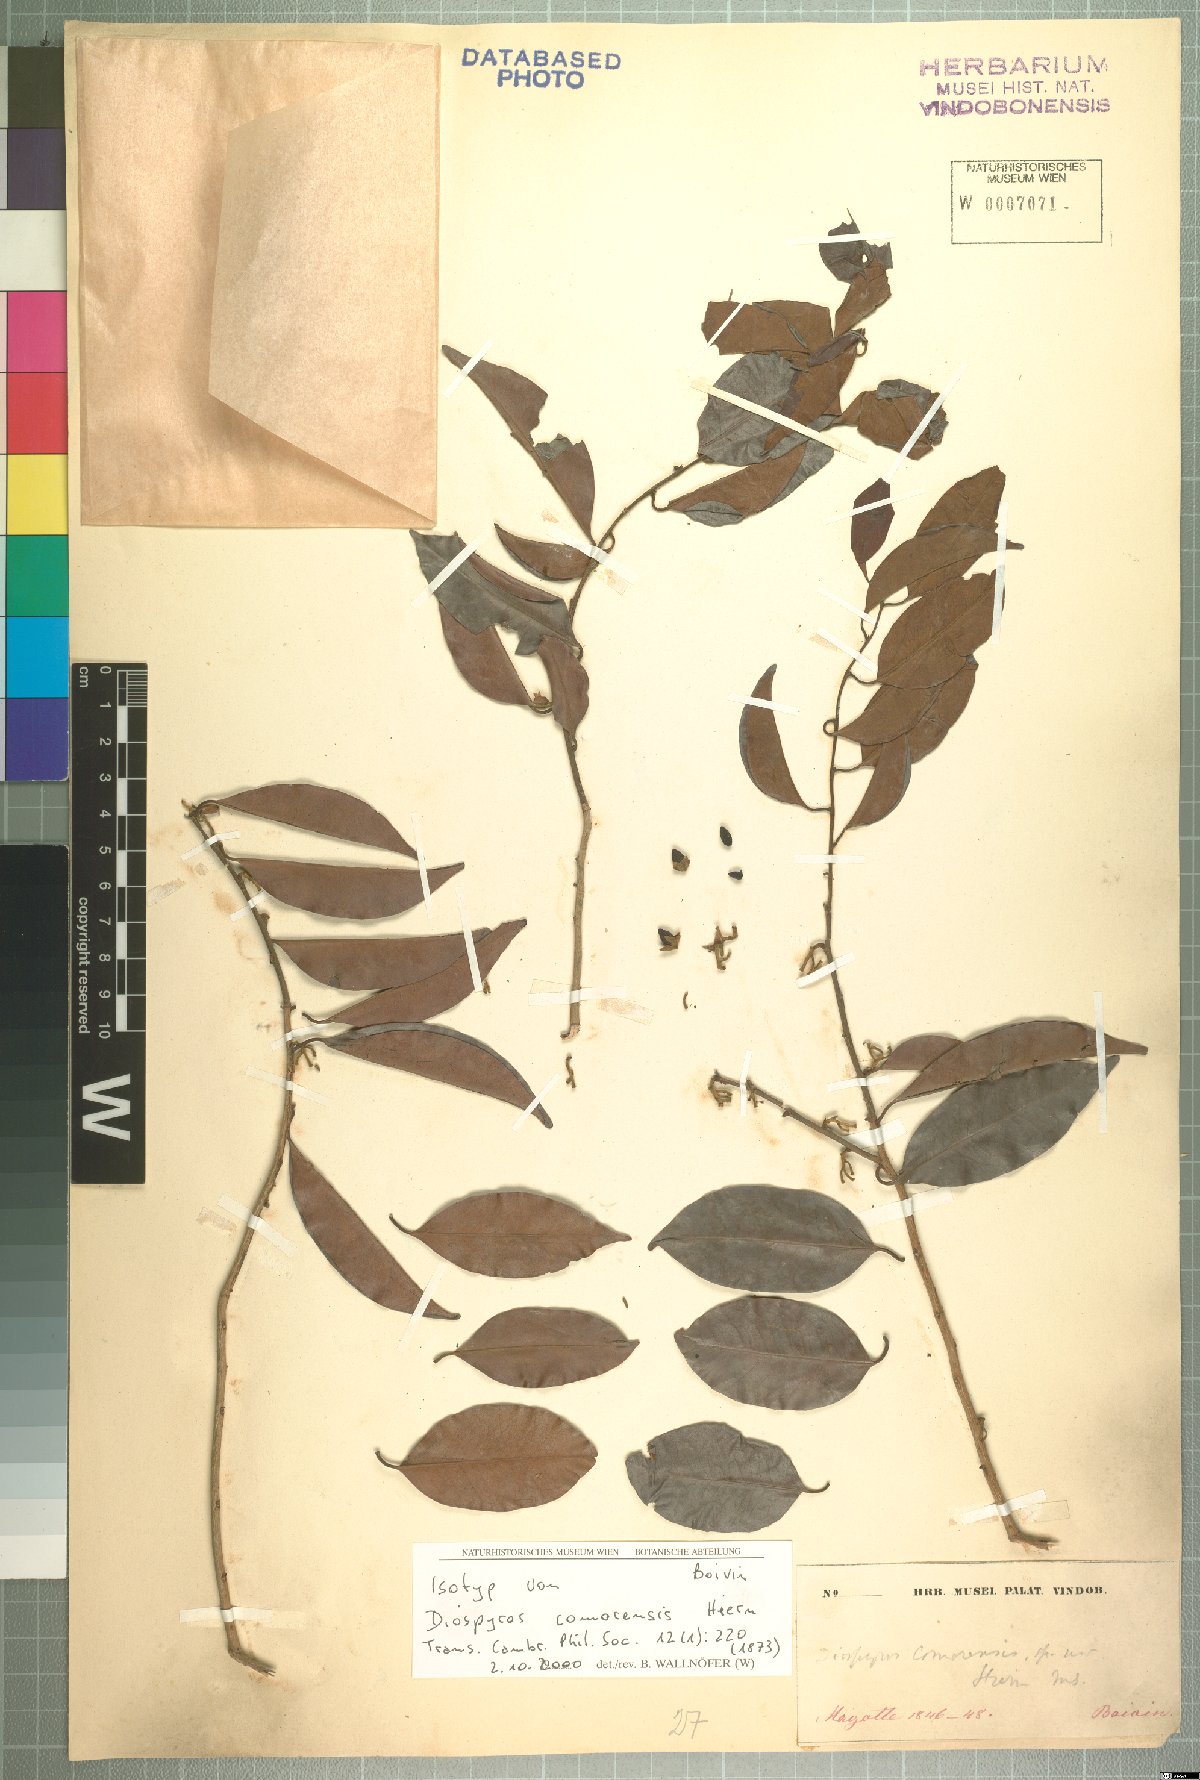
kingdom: Plantae
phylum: Tracheophyta
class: Magnoliopsida
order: Ericales
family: Ebenaceae
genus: Diospyros
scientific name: Diospyros comorensis
